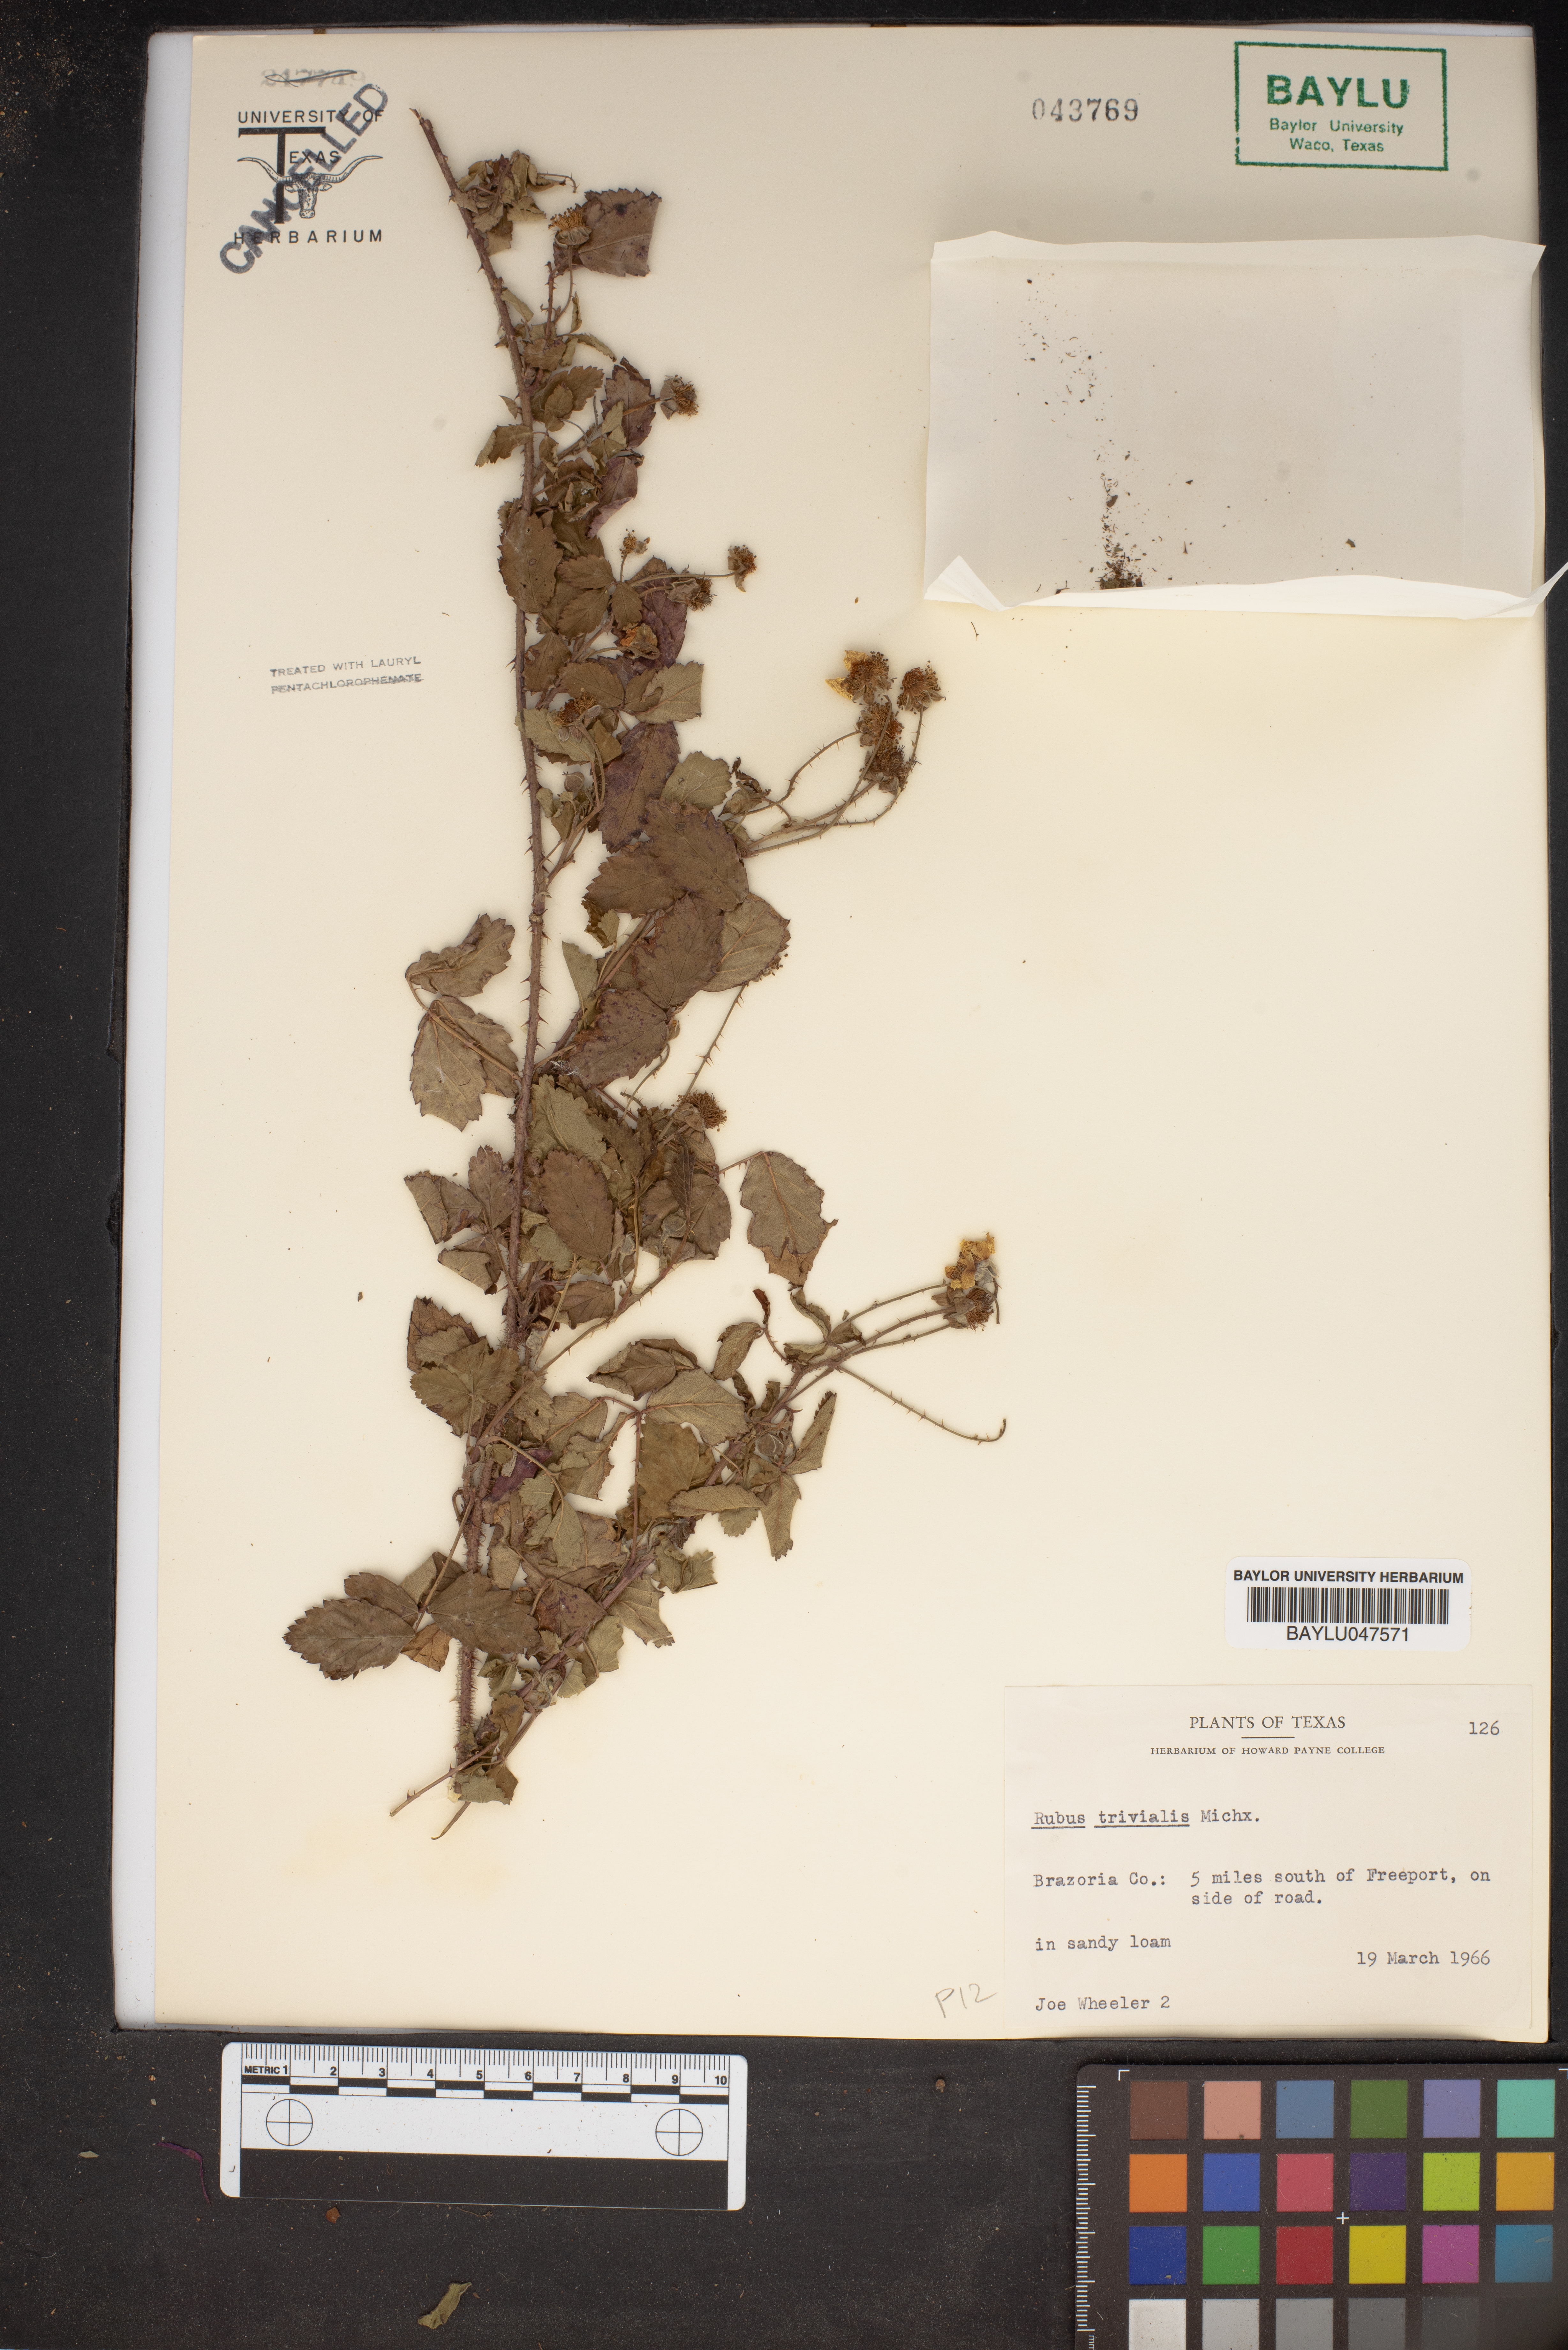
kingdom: Plantae
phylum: Tracheophyta
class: Magnoliopsida
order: Rosales
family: Rosaceae
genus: Rubus
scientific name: Rubus trivialis
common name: Southern dewberry
